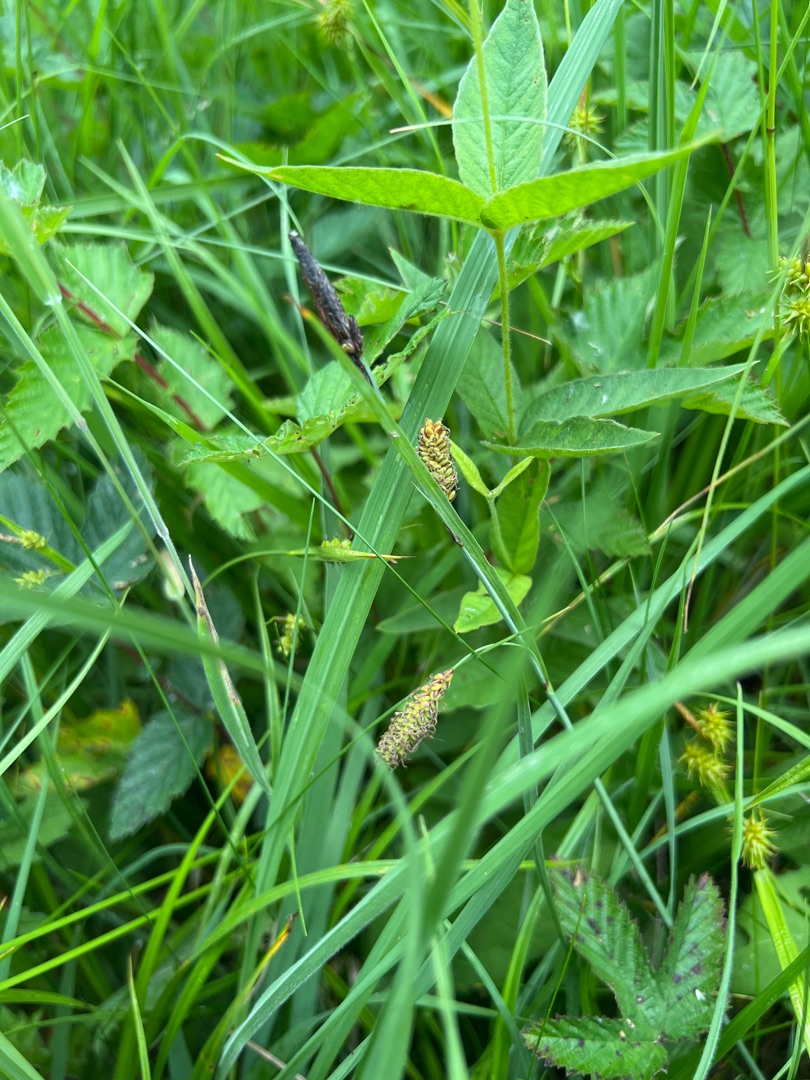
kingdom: Plantae
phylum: Tracheophyta
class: Liliopsida
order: Poales
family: Cyperaceae
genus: Carex
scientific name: Carex flacca
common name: Blågrøn star
